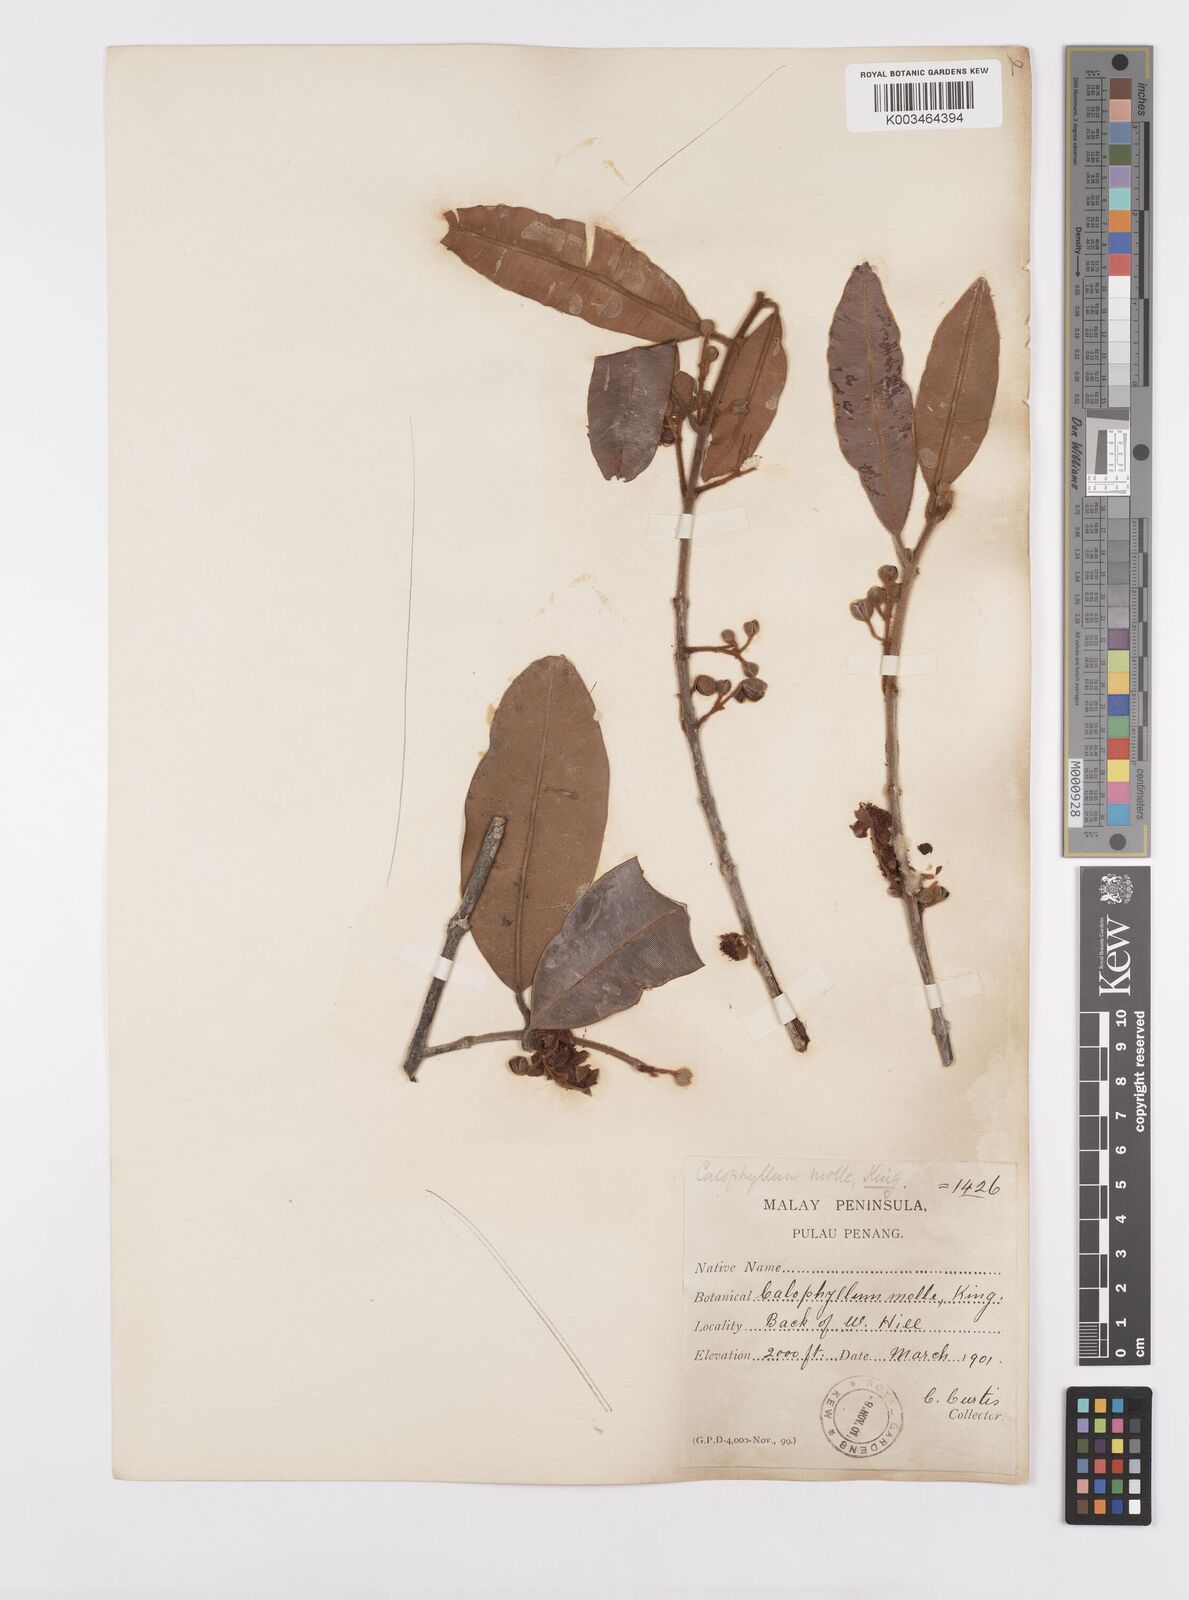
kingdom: Plantae
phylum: Tracheophyta
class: Magnoliopsida
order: Malpighiales
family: Calophyllaceae
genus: Calophyllum
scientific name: Calophyllum molle
